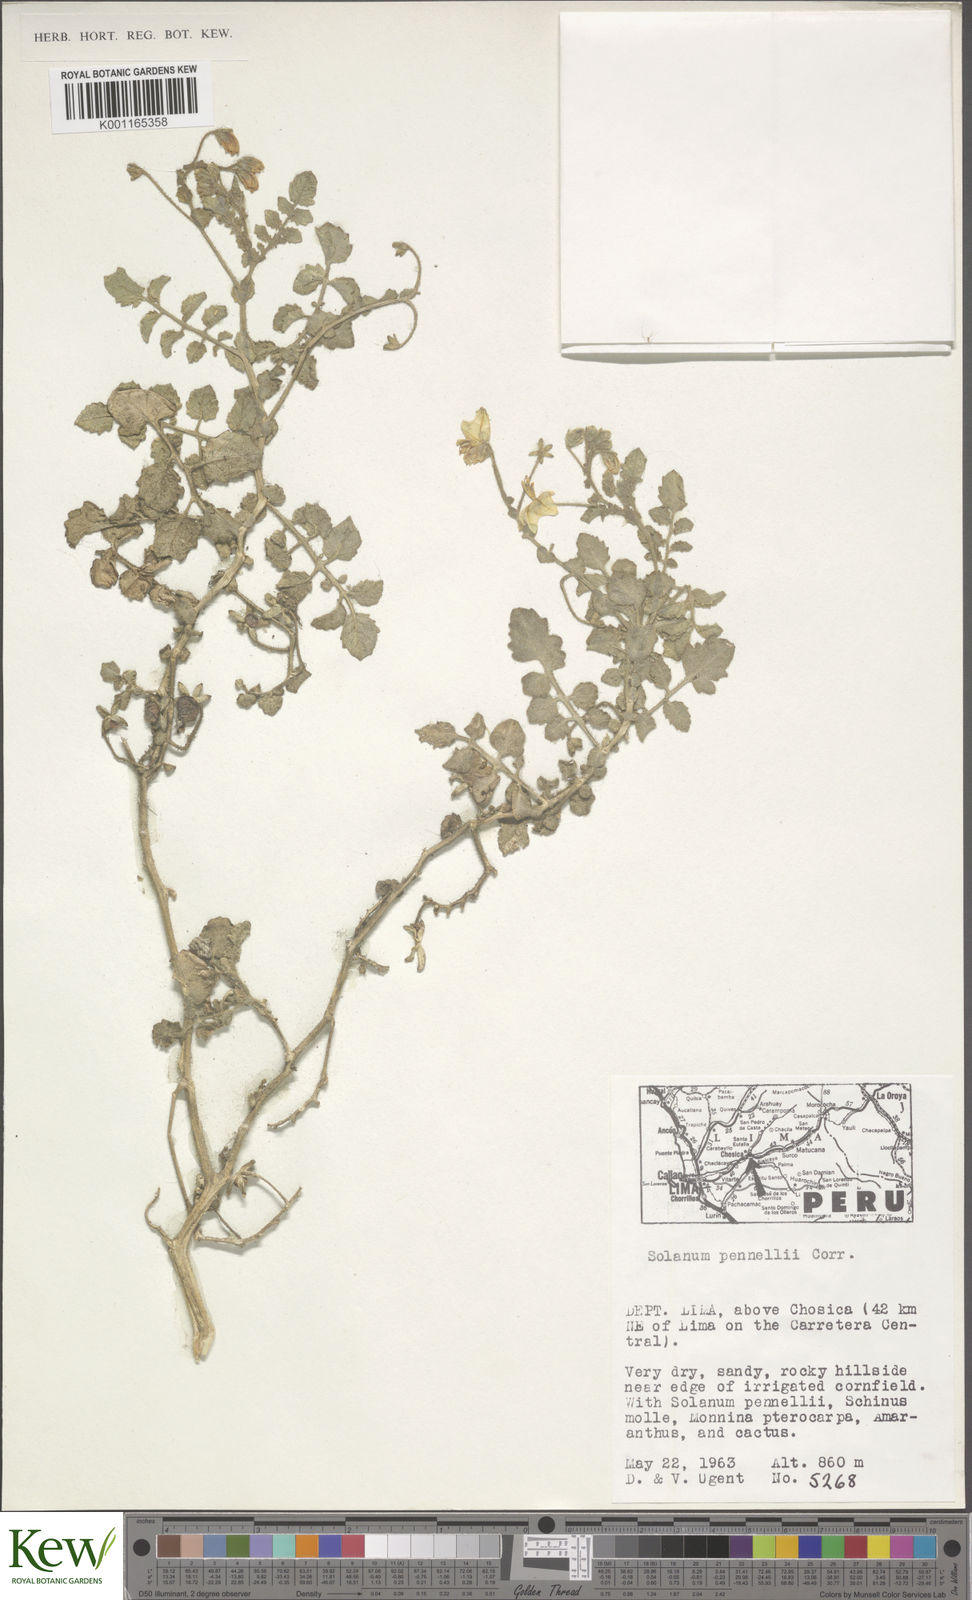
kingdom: Plantae
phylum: Tracheophyta
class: Magnoliopsida
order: Solanales
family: Solanaceae
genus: Solanum
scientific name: Solanum pennellii
